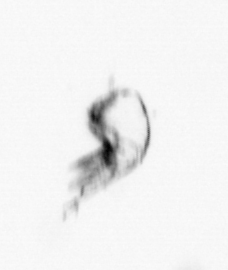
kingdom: Animalia
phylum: Arthropoda
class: Maxillopoda
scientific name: Maxillopoda
